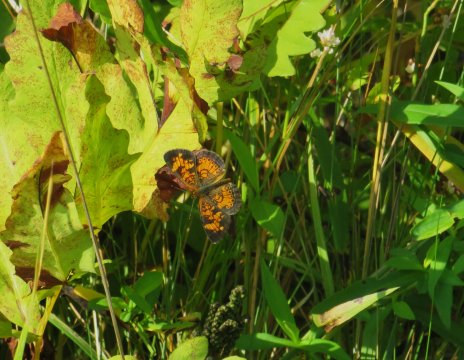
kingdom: Animalia
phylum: Arthropoda
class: Insecta
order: Lepidoptera
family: Nymphalidae
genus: Phyciodes
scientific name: Phyciodes tharos
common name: Pearl Crescent
